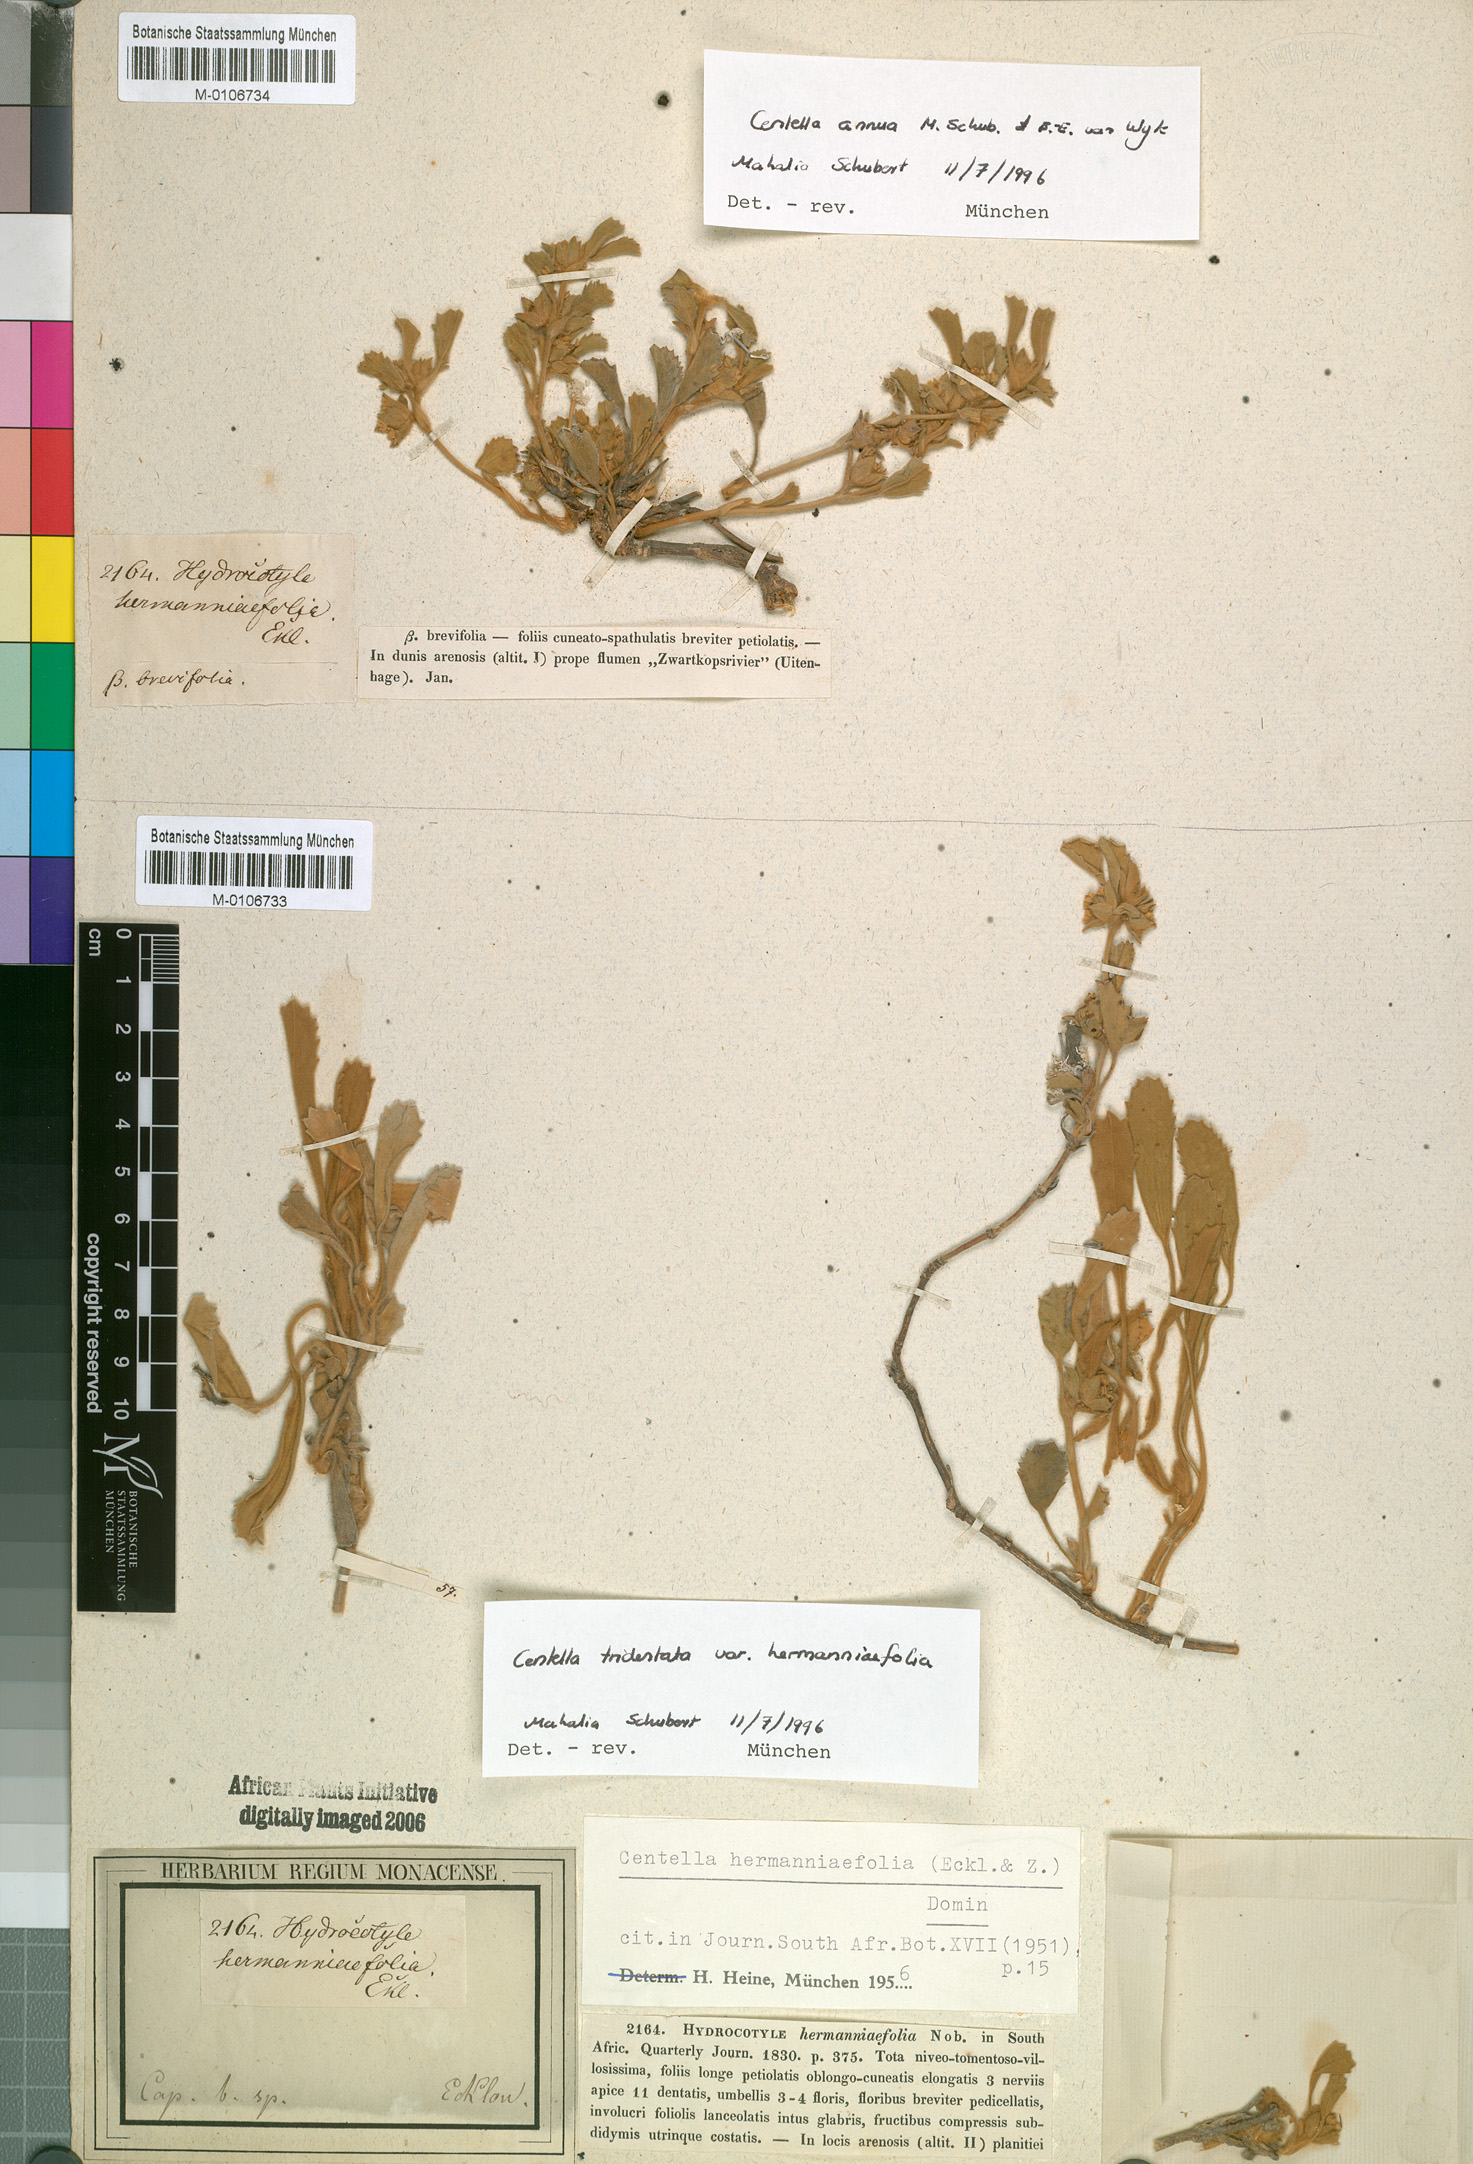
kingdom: Plantae
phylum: Tracheophyta
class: Magnoliopsida
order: Apiales
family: Apiaceae
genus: Centella
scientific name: Centella tridentata
